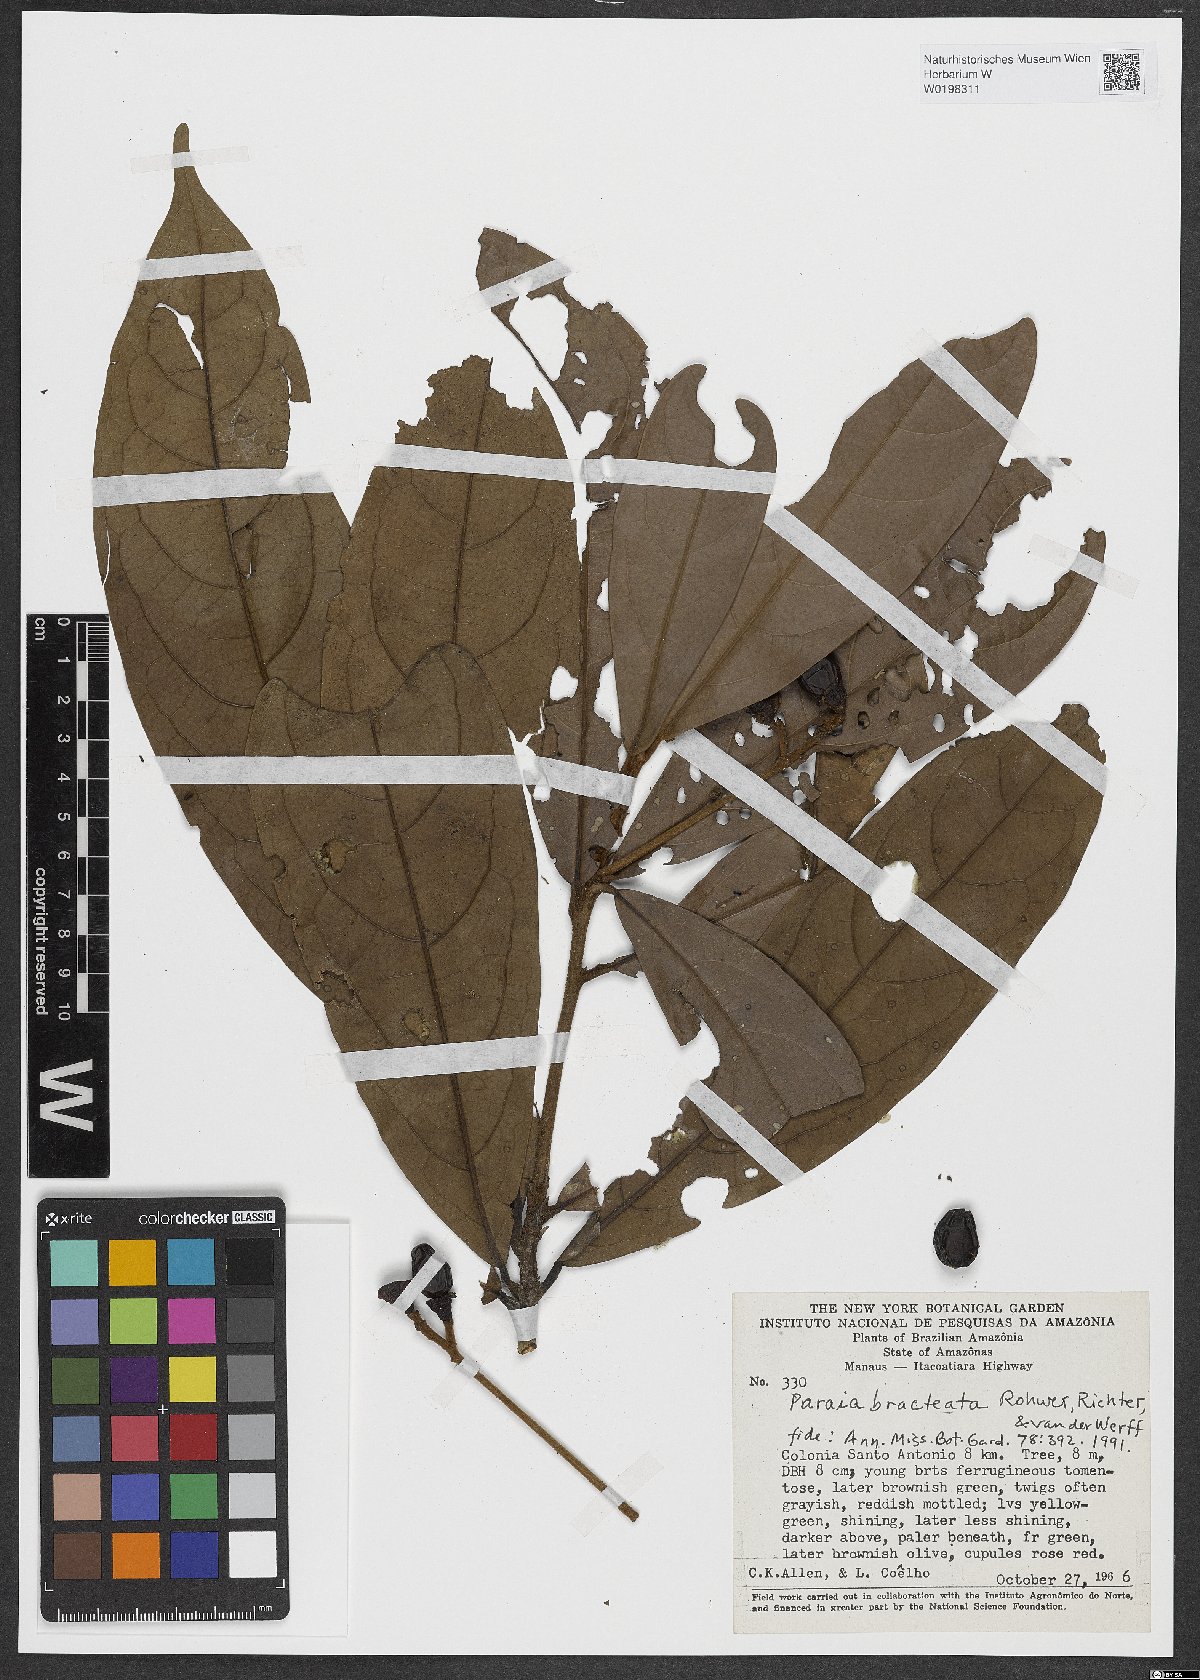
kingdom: Plantae
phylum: Tracheophyta
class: Magnoliopsida
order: Laurales
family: Lauraceae
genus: Paraia
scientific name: Paraia bracteata
